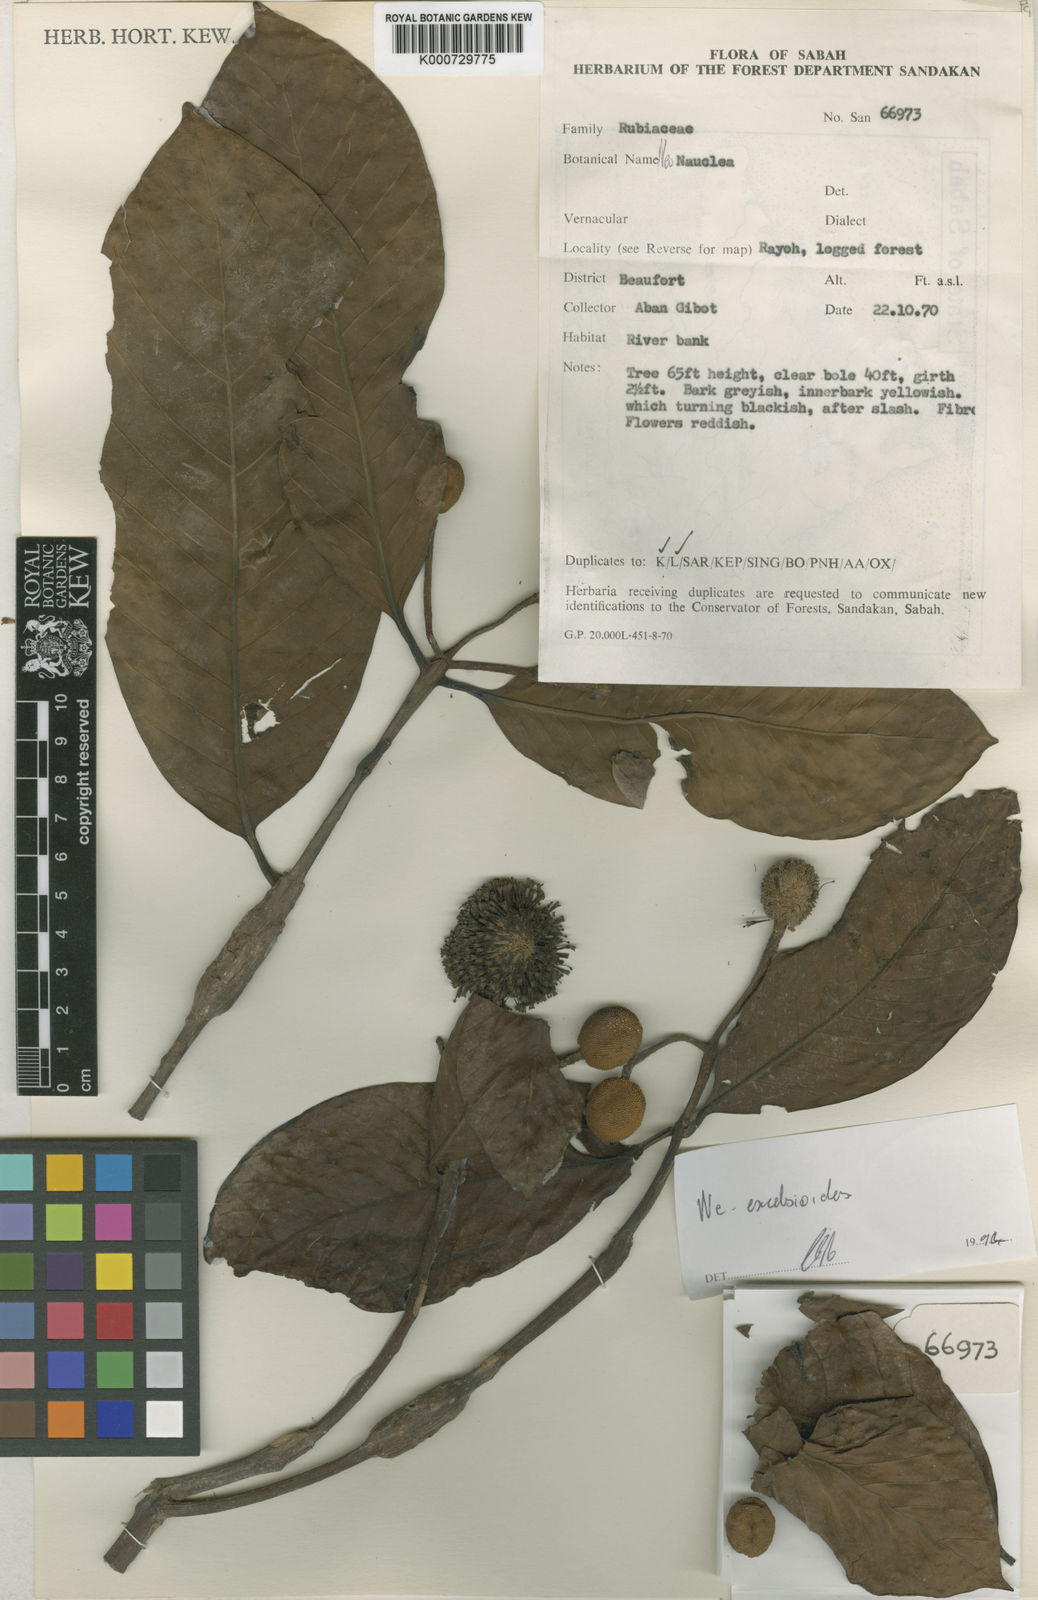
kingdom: Plantae
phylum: Tracheophyta
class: Magnoliopsida
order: Gentianales
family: Rubiaceae
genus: Neonauclea
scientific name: Neonauclea excelsioides
